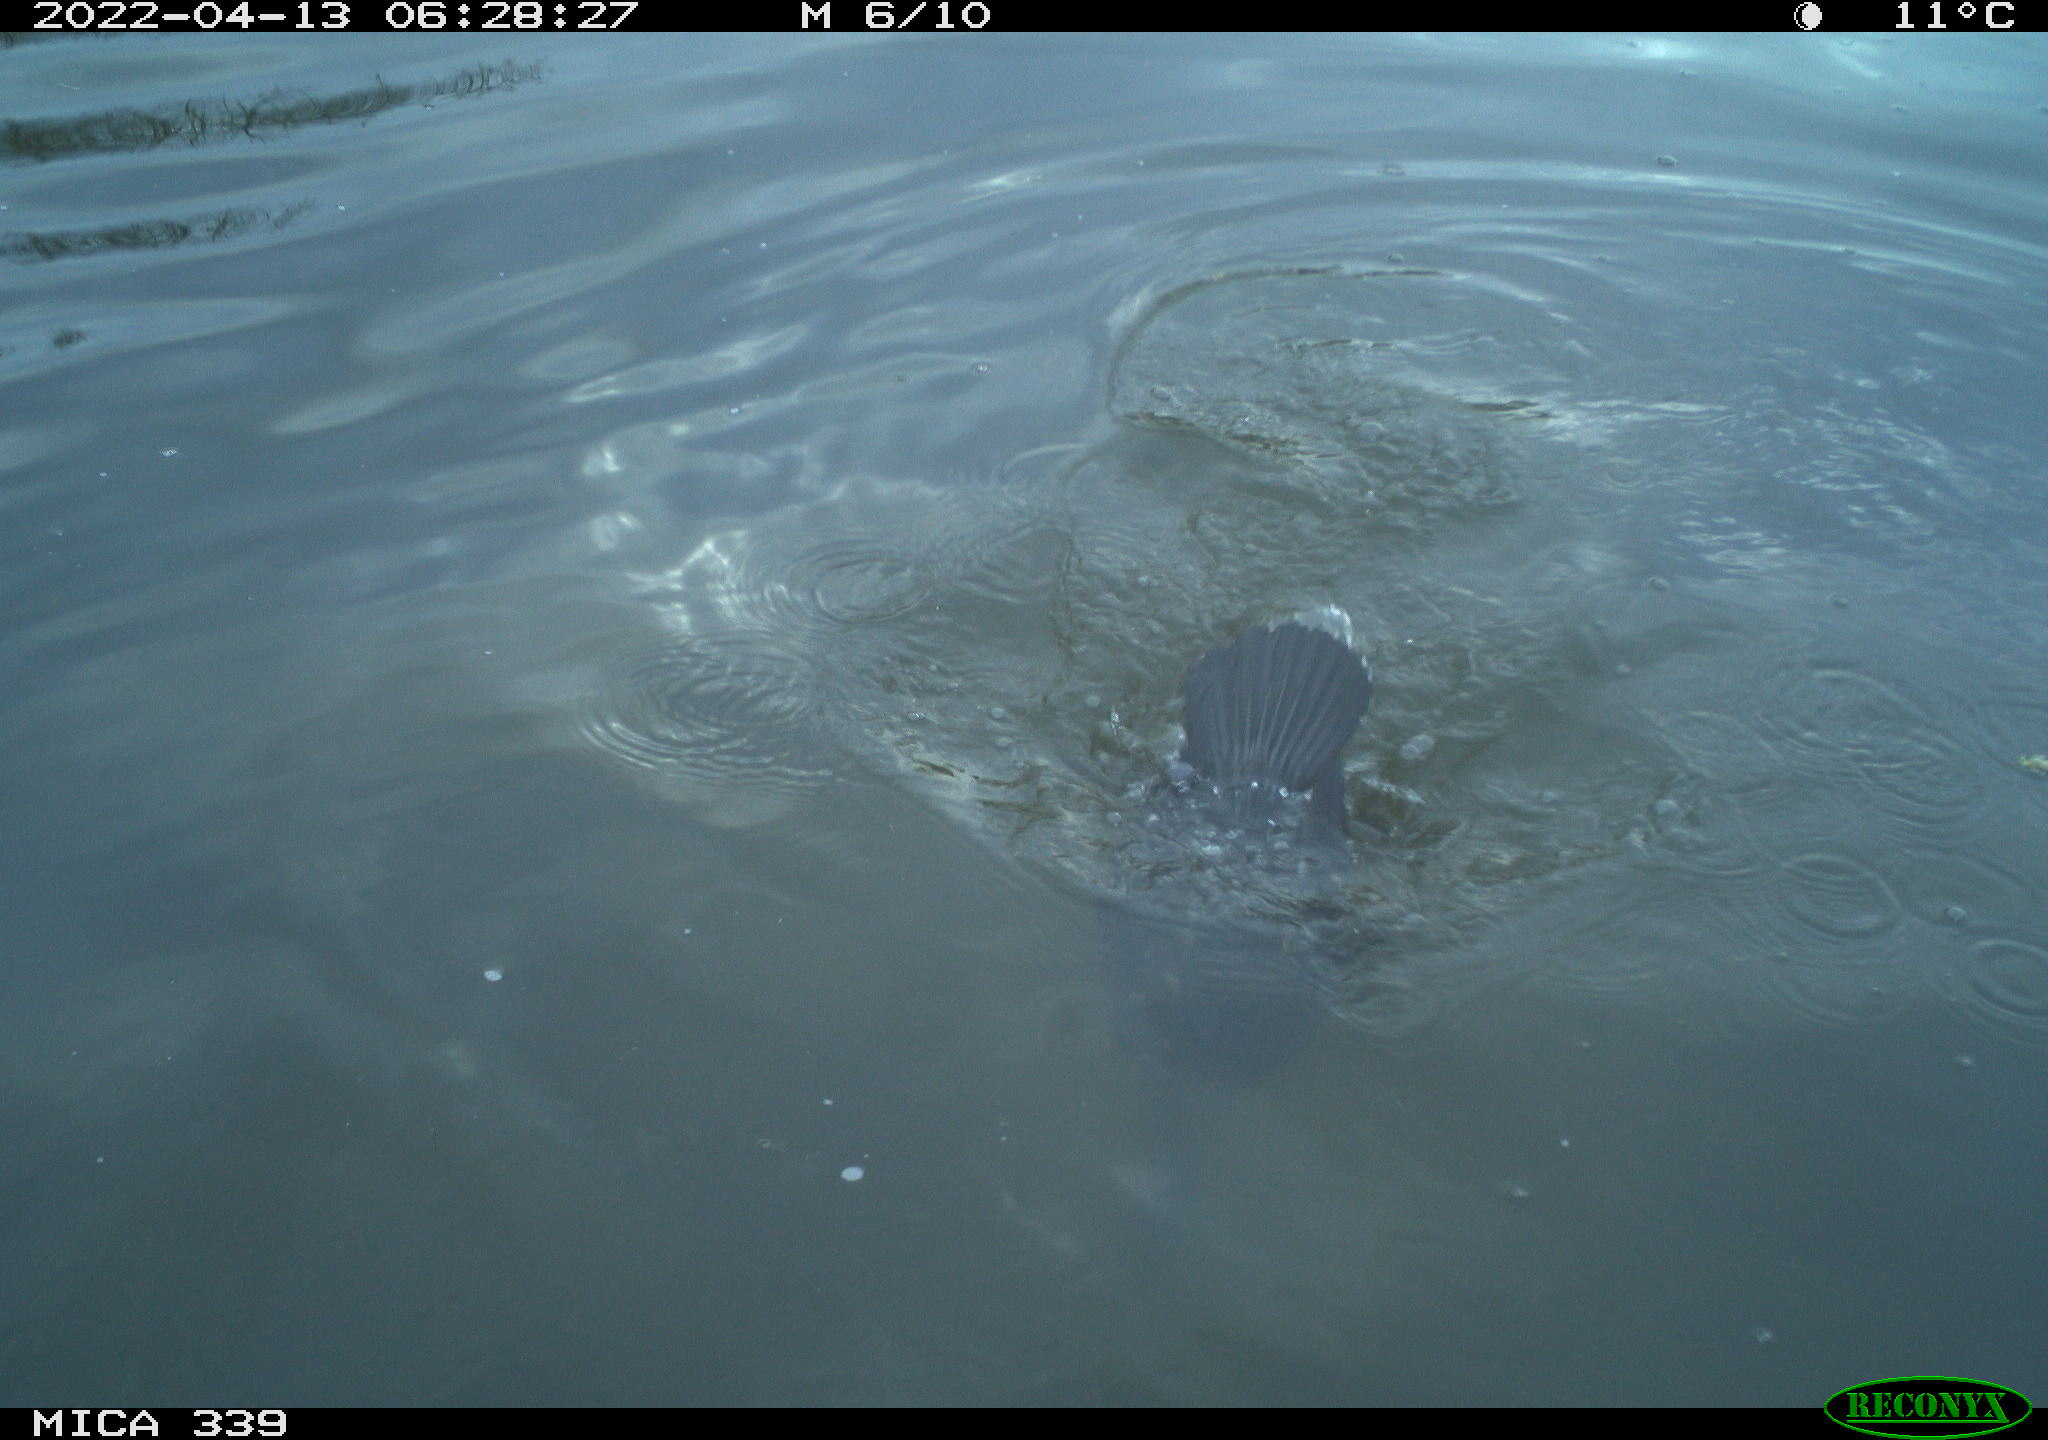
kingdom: Animalia
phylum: Chordata
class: Aves
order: Suliformes
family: Phalacrocoracidae
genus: Phalacrocorax
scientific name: Phalacrocorax carbo
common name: Great cormorant
